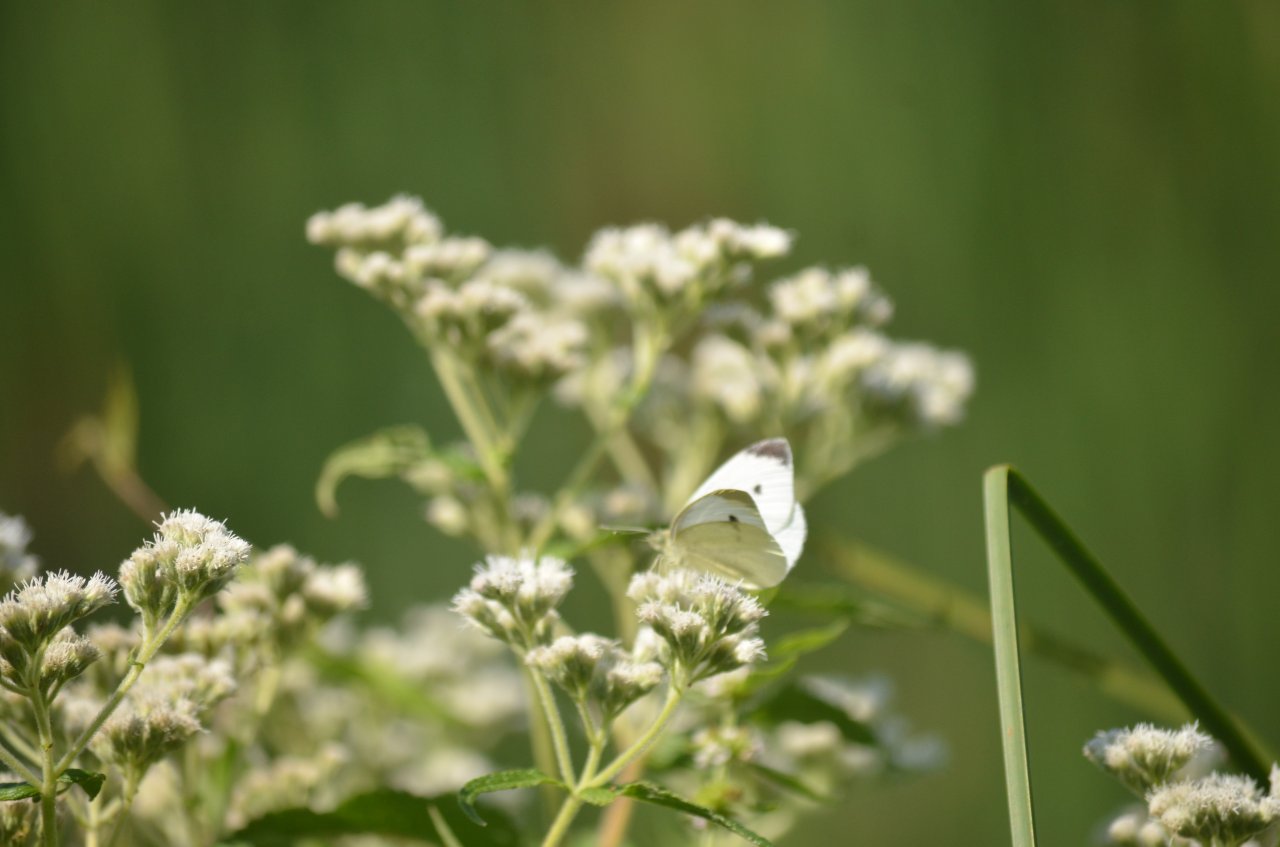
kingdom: Animalia
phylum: Arthropoda
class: Insecta
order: Lepidoptera
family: Pieridae
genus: Pieris
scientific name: Pieris rapae
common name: Cabbage White
